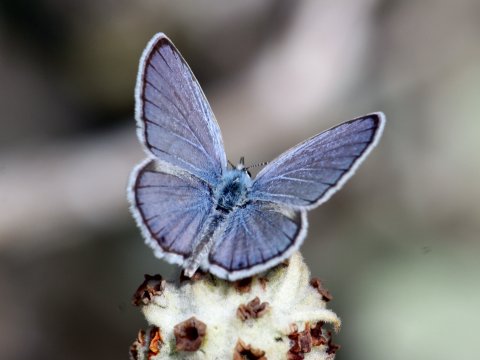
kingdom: Animalia
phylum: Arthropoda
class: Insecta
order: Lepidoptera
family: Lycaenidae
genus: Echinargus
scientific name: Echinargus isola
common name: Reakirt's Blue
